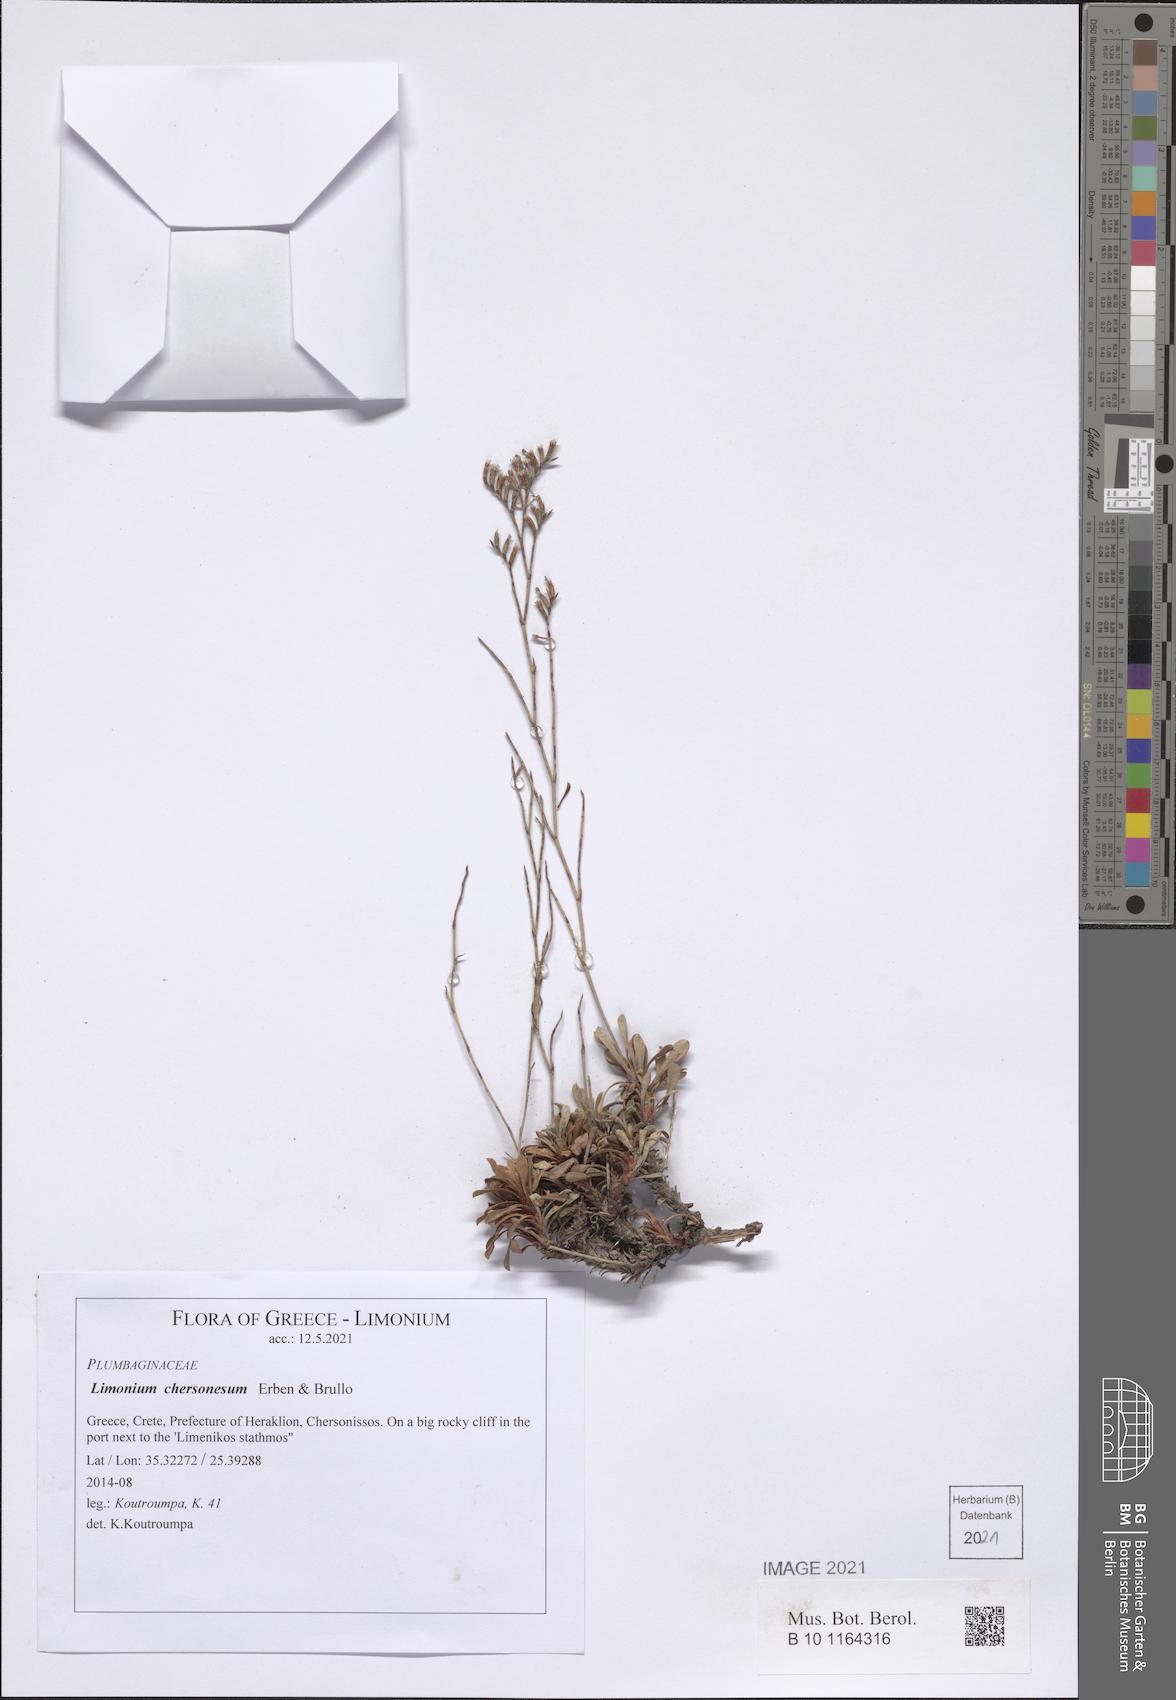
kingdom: Plantae
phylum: Tracheophyta
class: Magnoliopsida
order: Caryophyllales
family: Plumbaginaceae
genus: Limonium
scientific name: Limonium chersonesum
